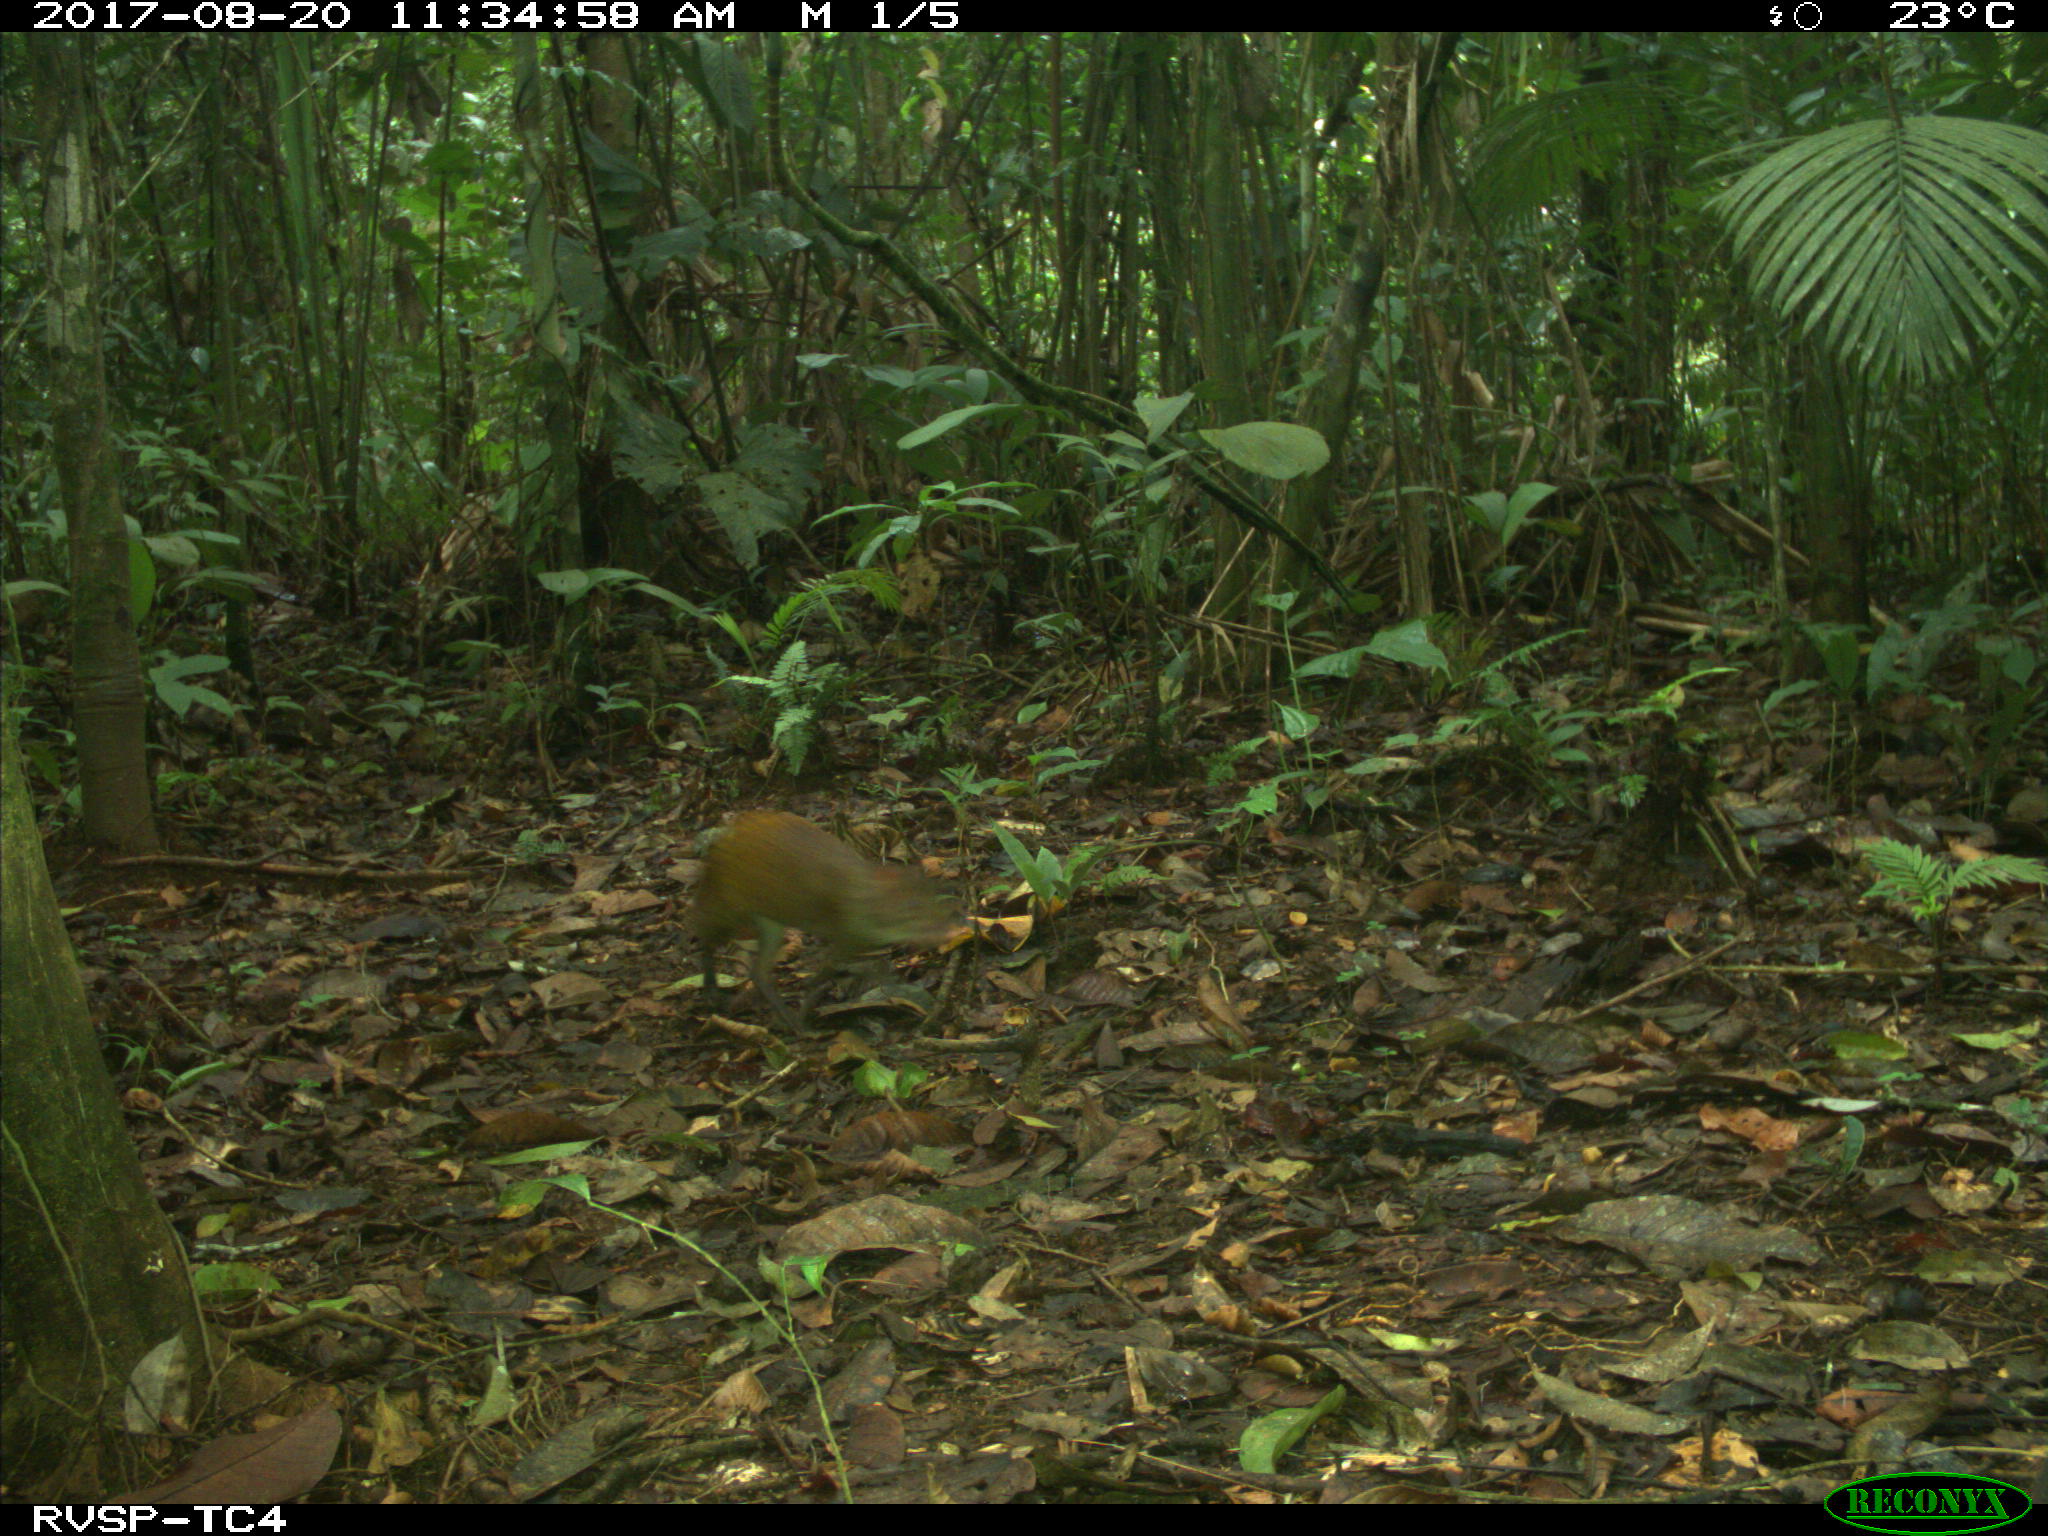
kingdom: Animalia
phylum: Chordata
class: Mammalia
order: Rodentia
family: Dasyproctidae
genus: Dasyprocta
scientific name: Dasyprocta punctata
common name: Central american agouti
